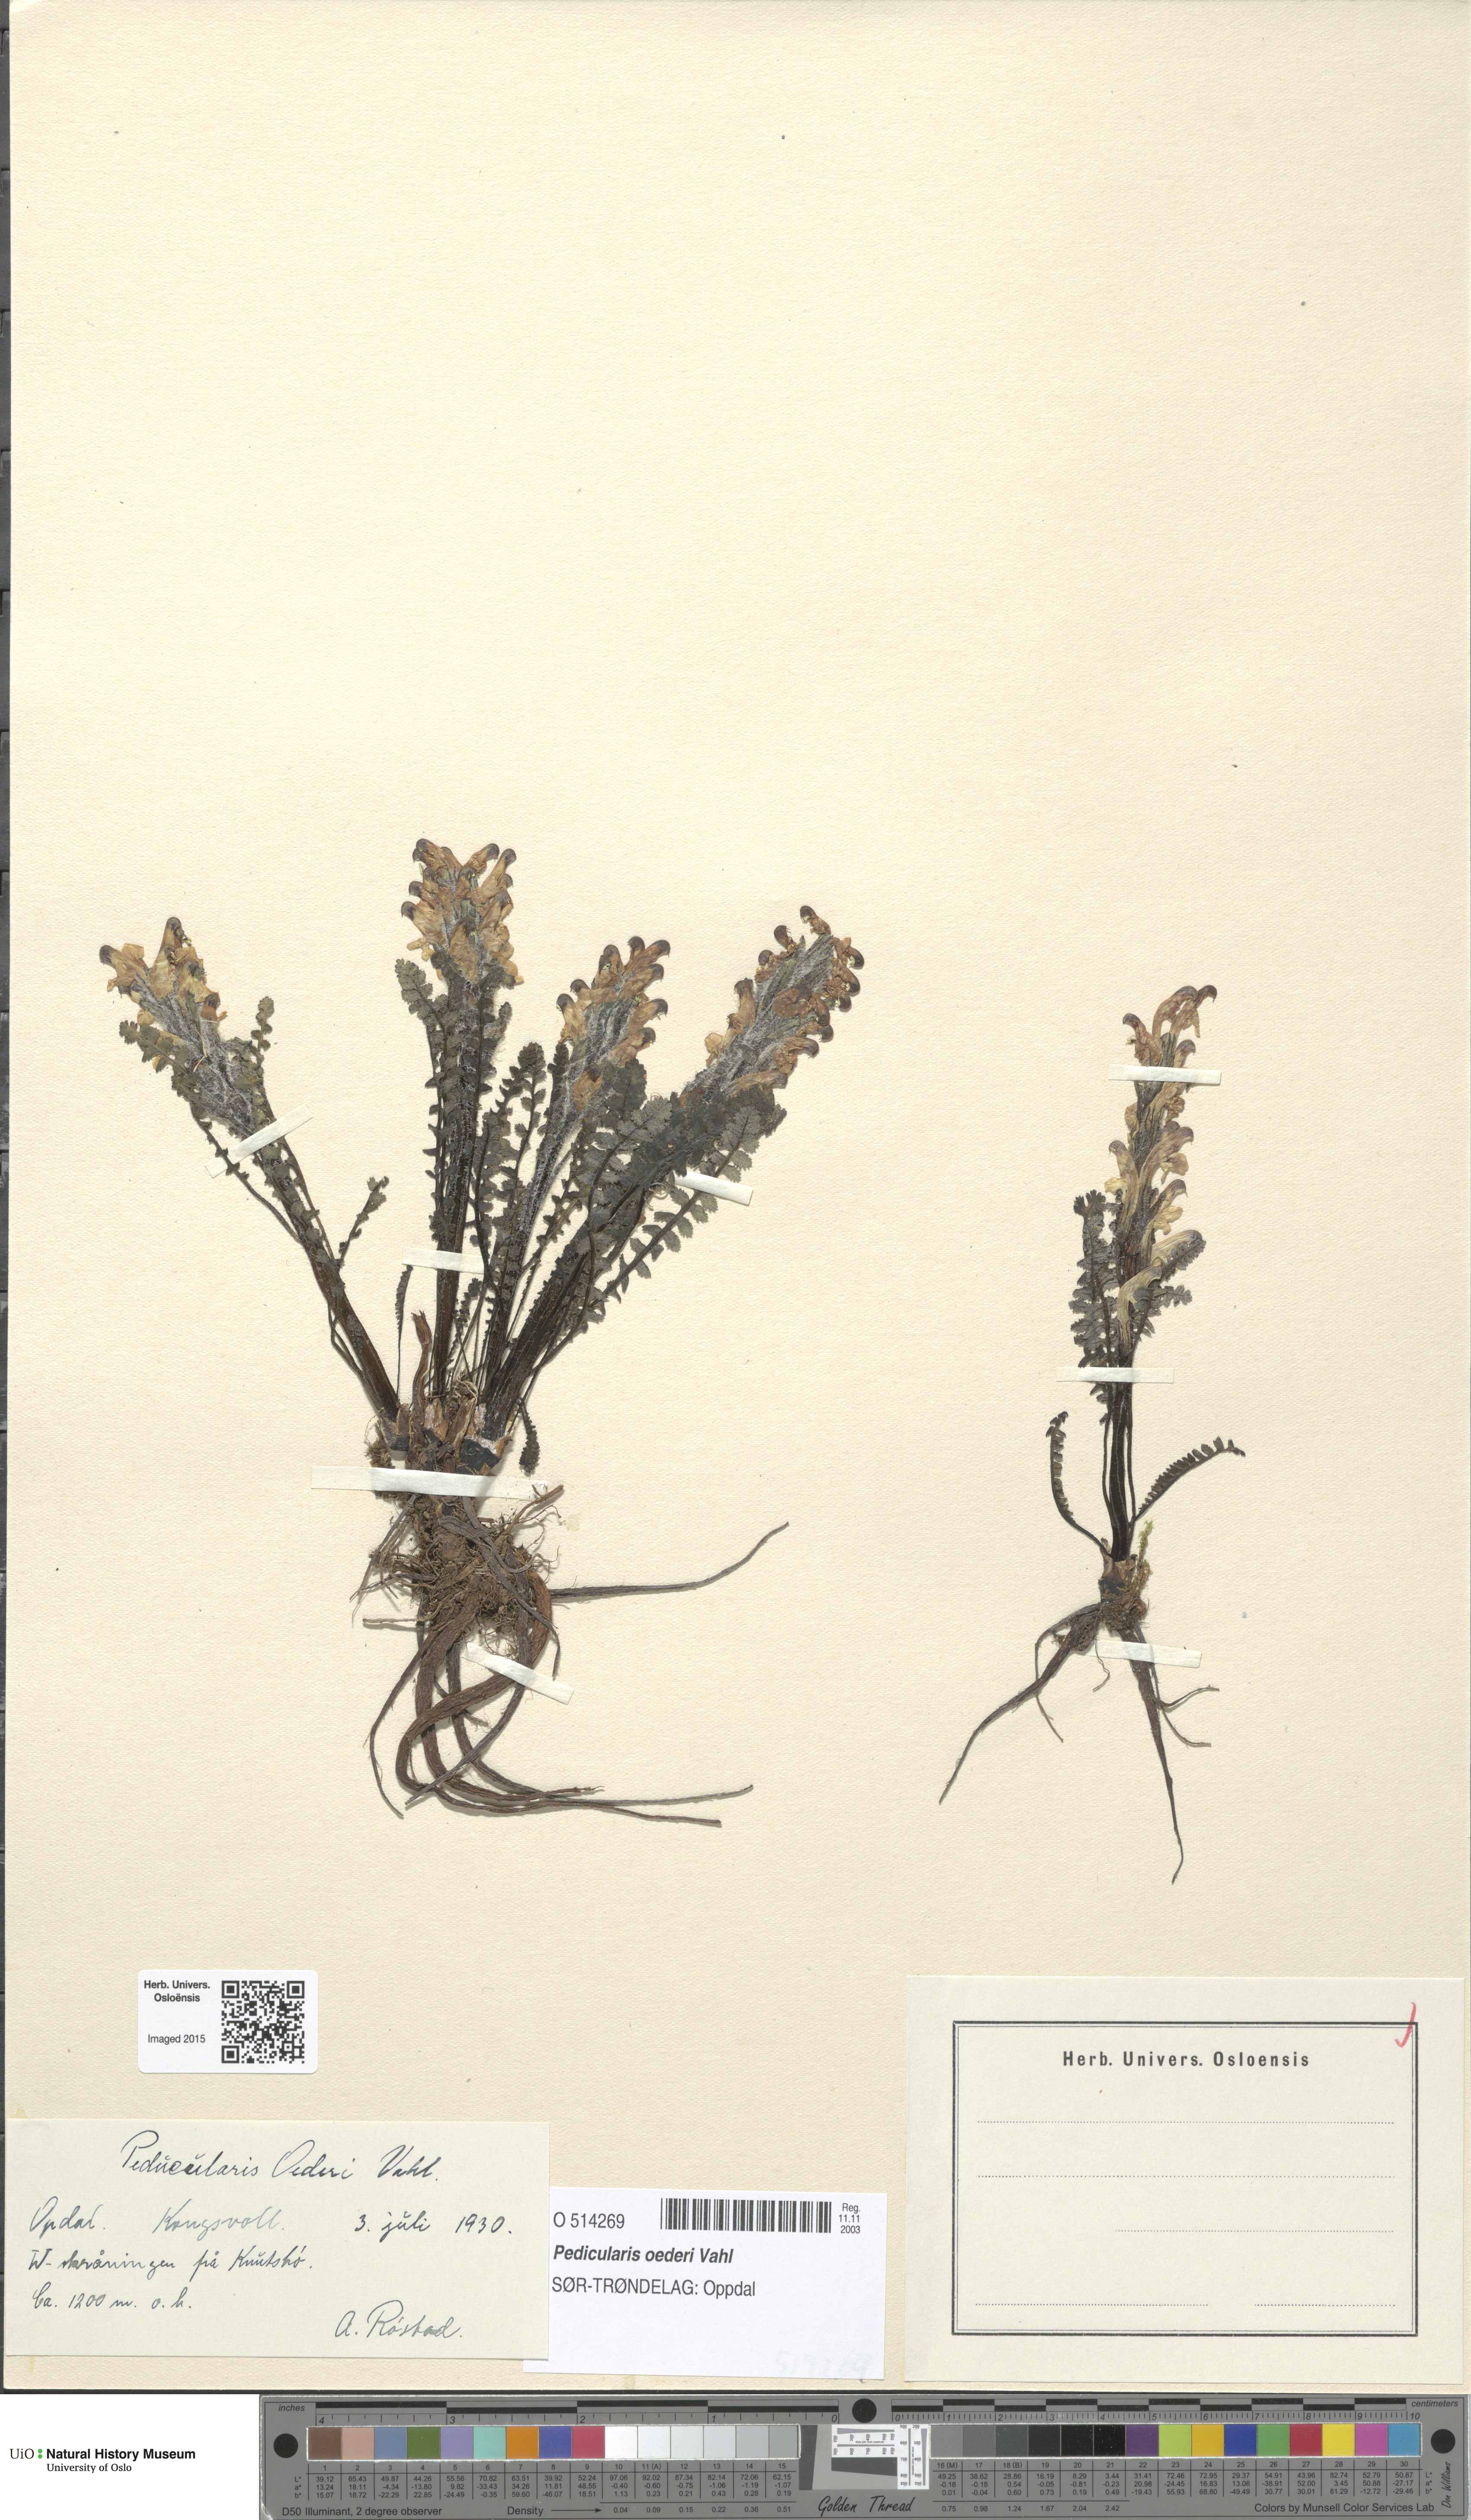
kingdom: Plantae
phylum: Tracheophyta
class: Magnoliopsida
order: Lamiales
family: Orobanchaceae
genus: Pedicularis
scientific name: Pedicularis oederi
